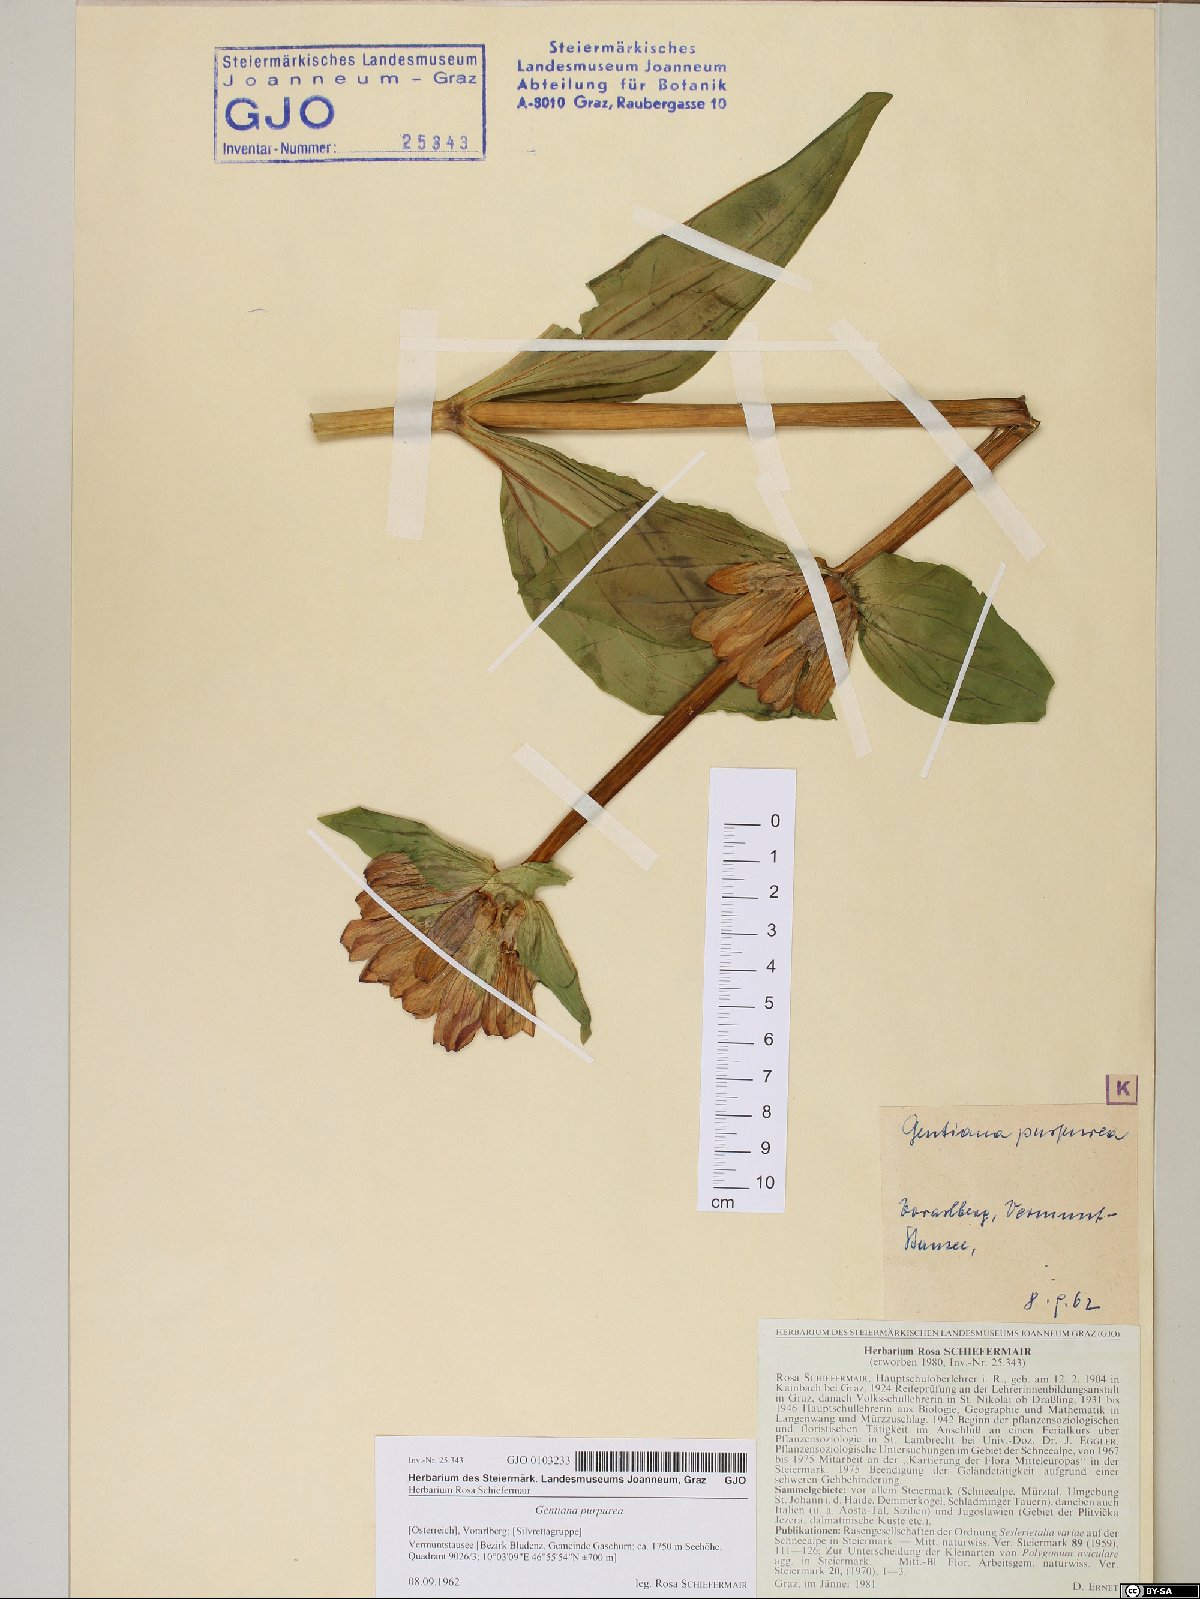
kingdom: Plantae
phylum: Tracheophyta
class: Magnoliopsida
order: Gentianales
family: Gentianaceae
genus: Gentiana
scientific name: Gentiana purpurea
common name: Purple gentian
